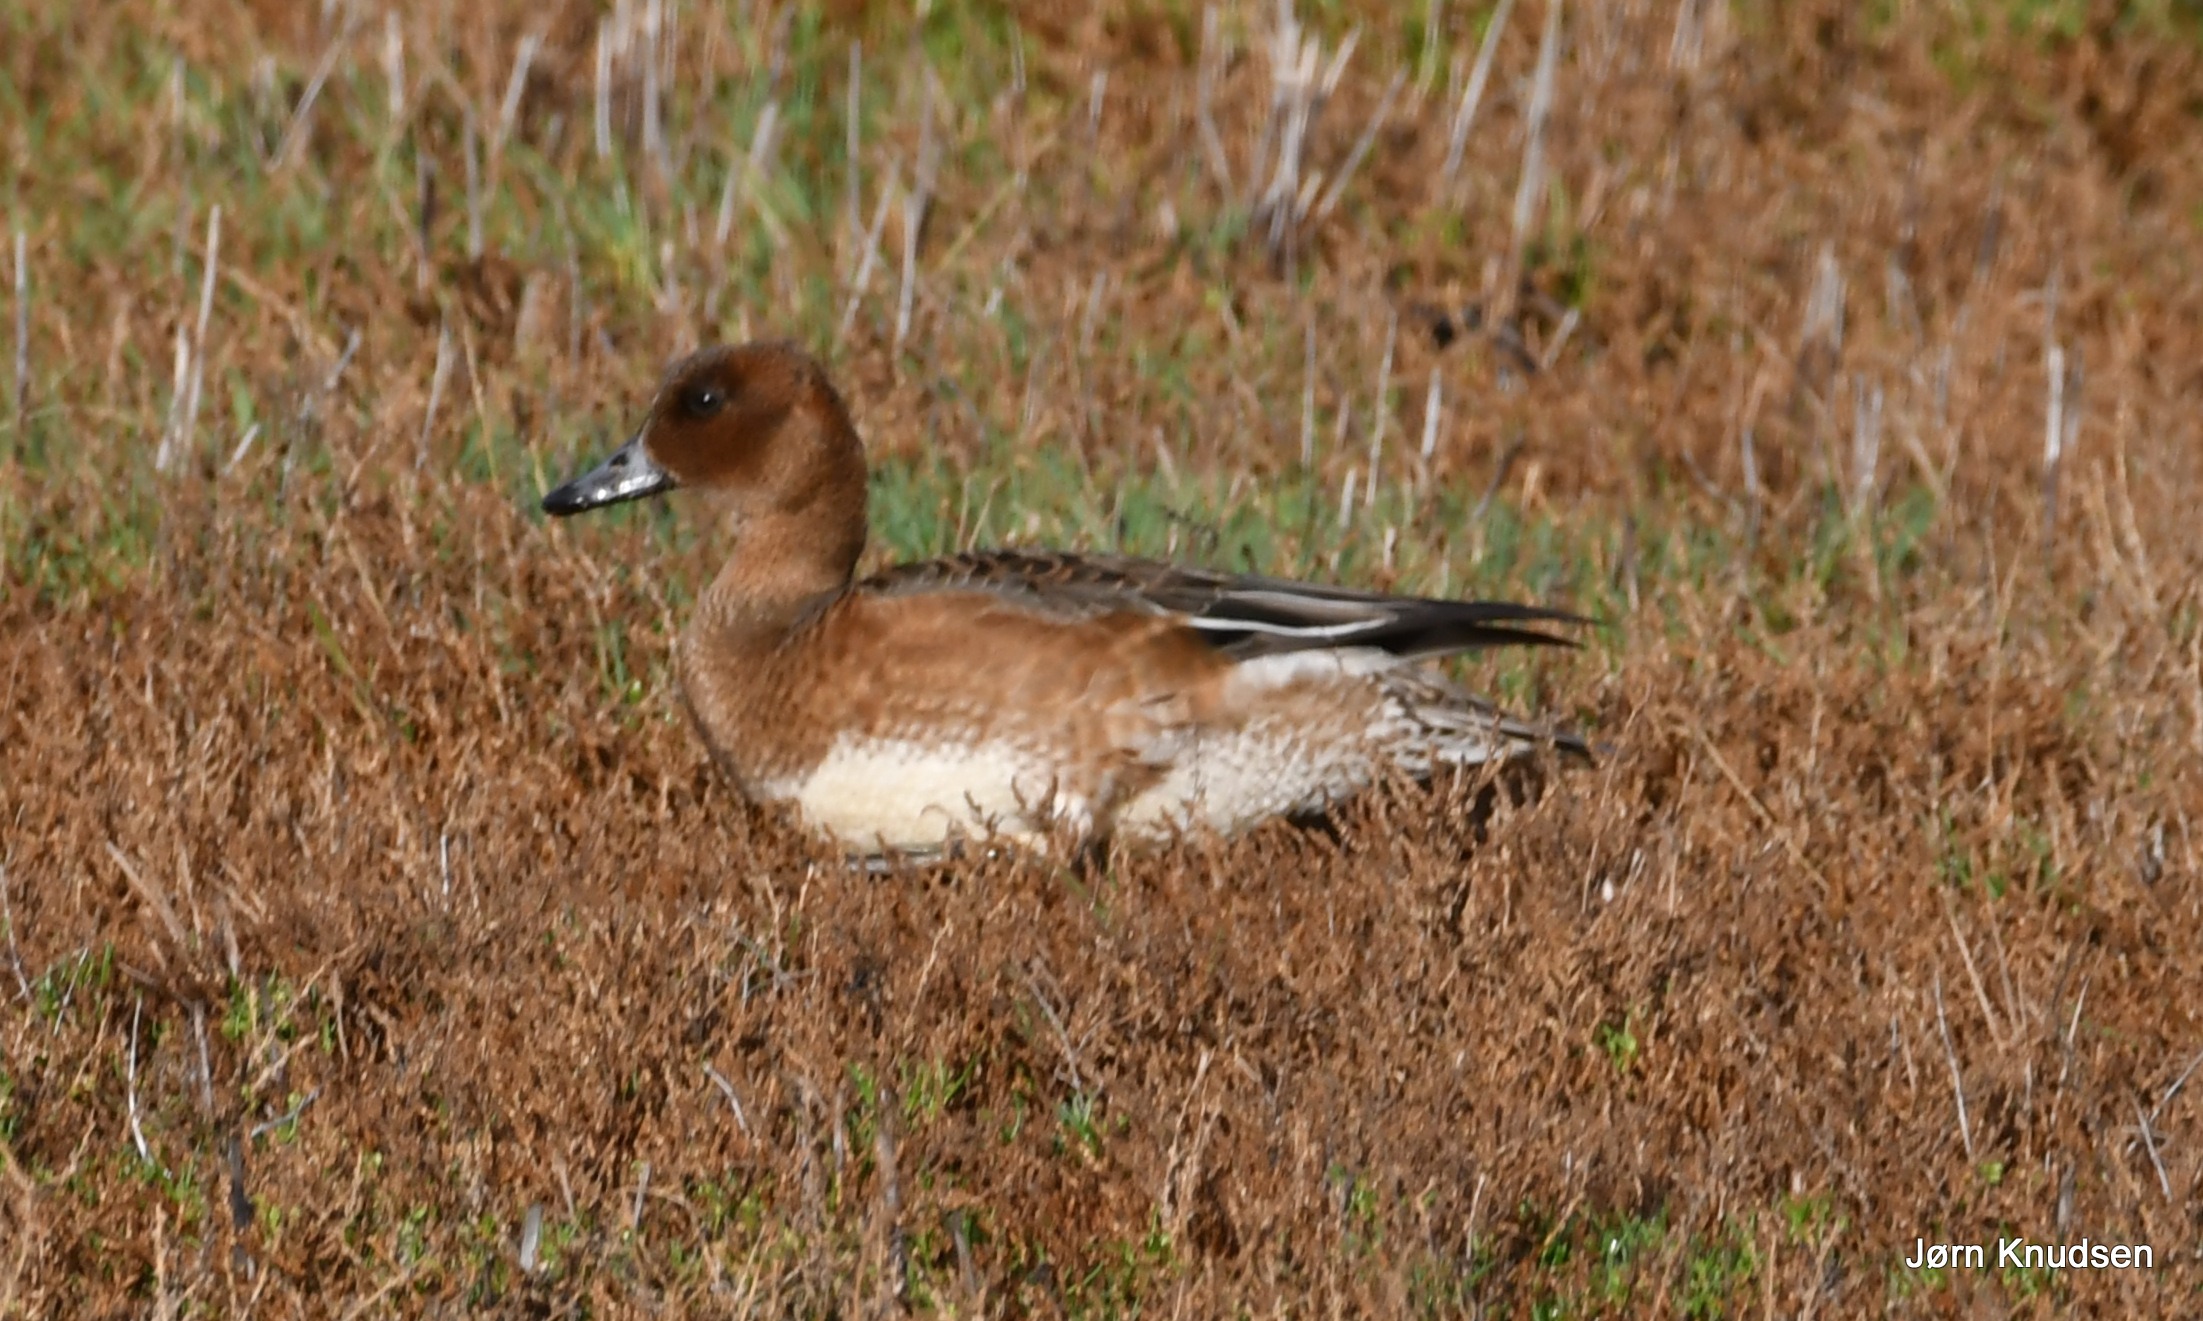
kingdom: Animalia
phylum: Chordata
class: Aves
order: Anseriformes
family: Anatidae
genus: Mareca
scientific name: Mareca penelope
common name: Pibeand
